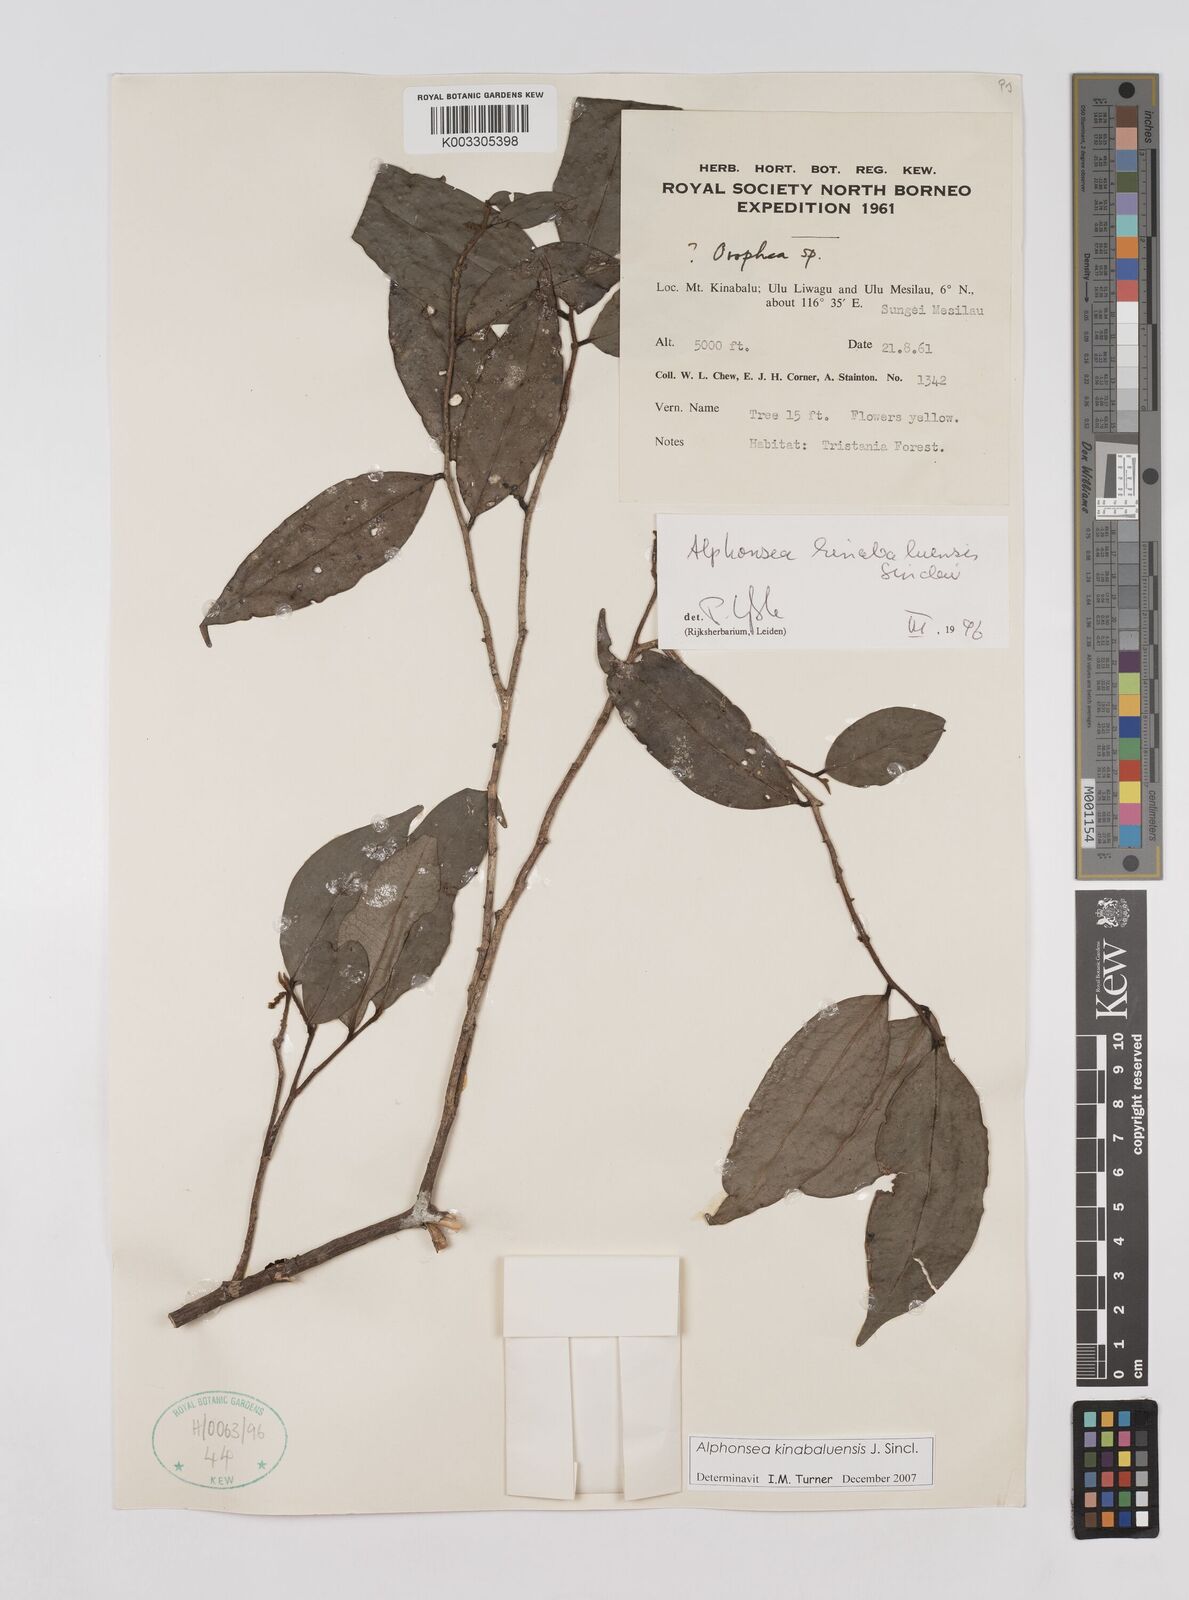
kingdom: Plantae
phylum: Tracheophyta
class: Magnoliopsida
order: Magnoliales
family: Annonaceae
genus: Alphonsea
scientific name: Alphonsea kinabaluensis
